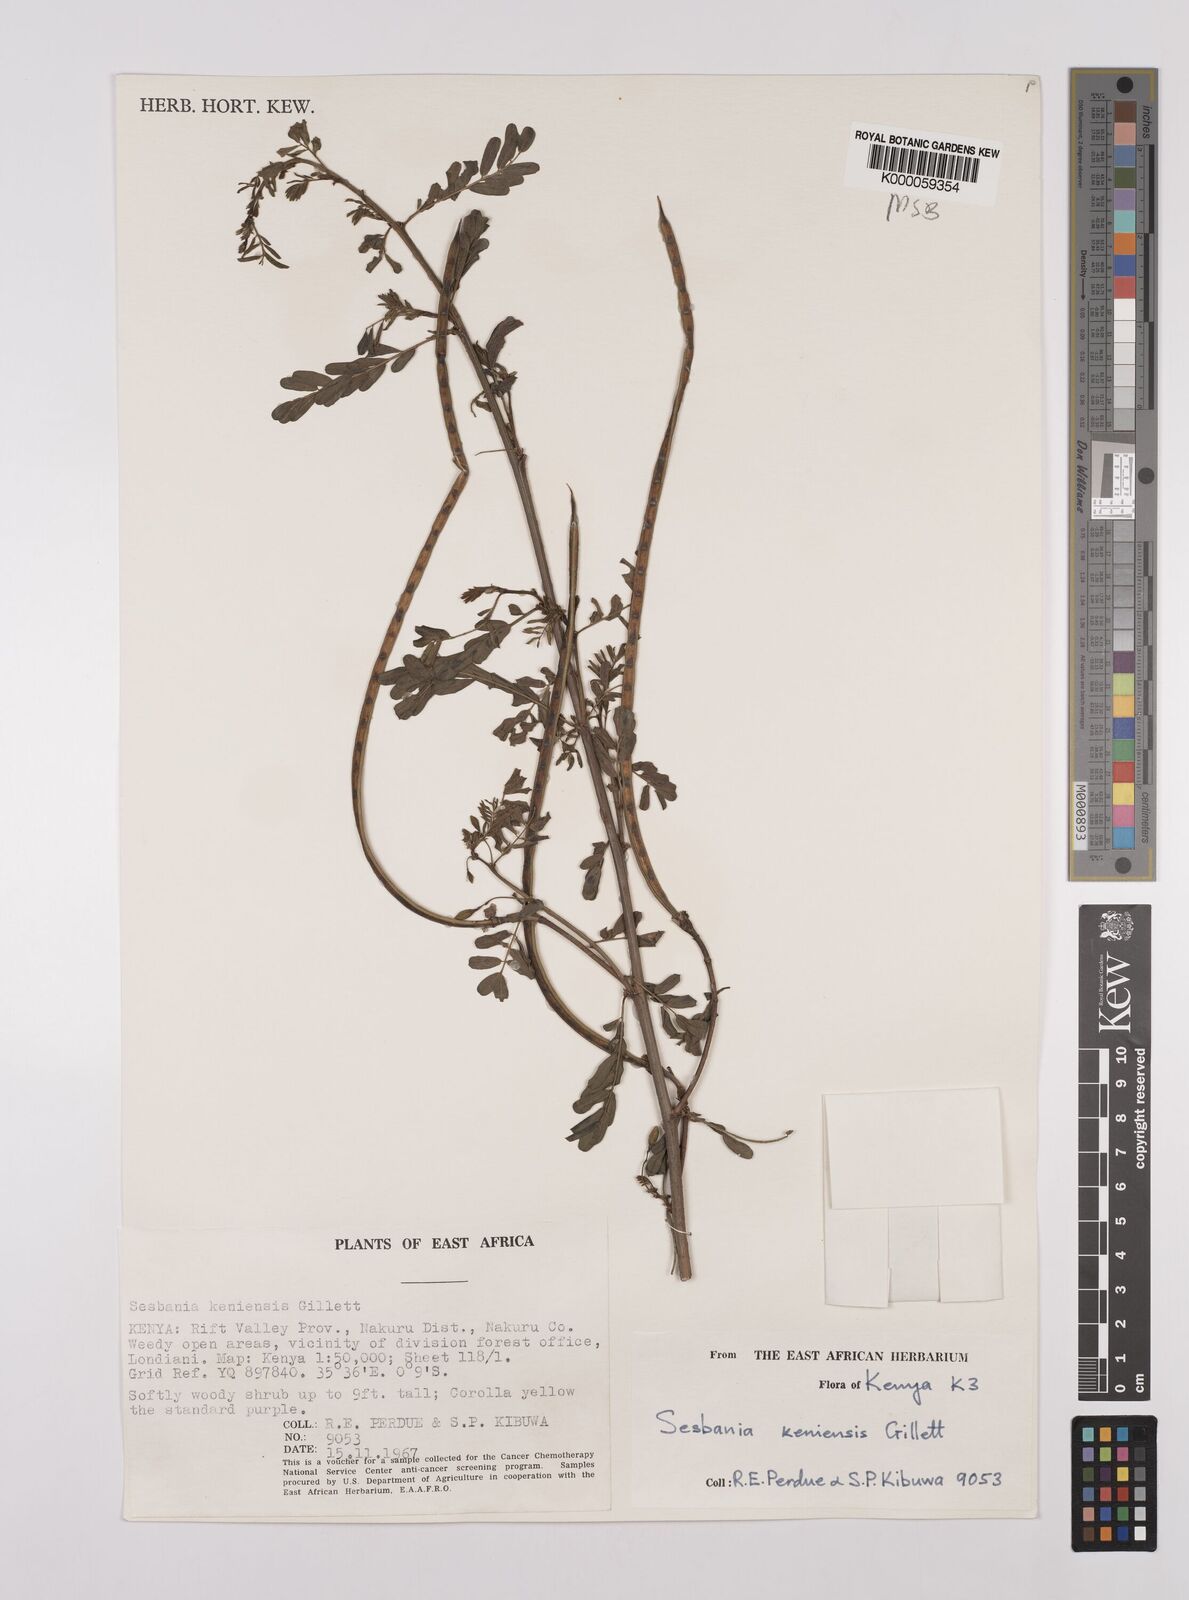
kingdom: Plantae
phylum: Tracheophyta
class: Magnoliopsida
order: Fabales
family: Fabaceae
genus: Sesbania
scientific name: Sesbania keniensis
